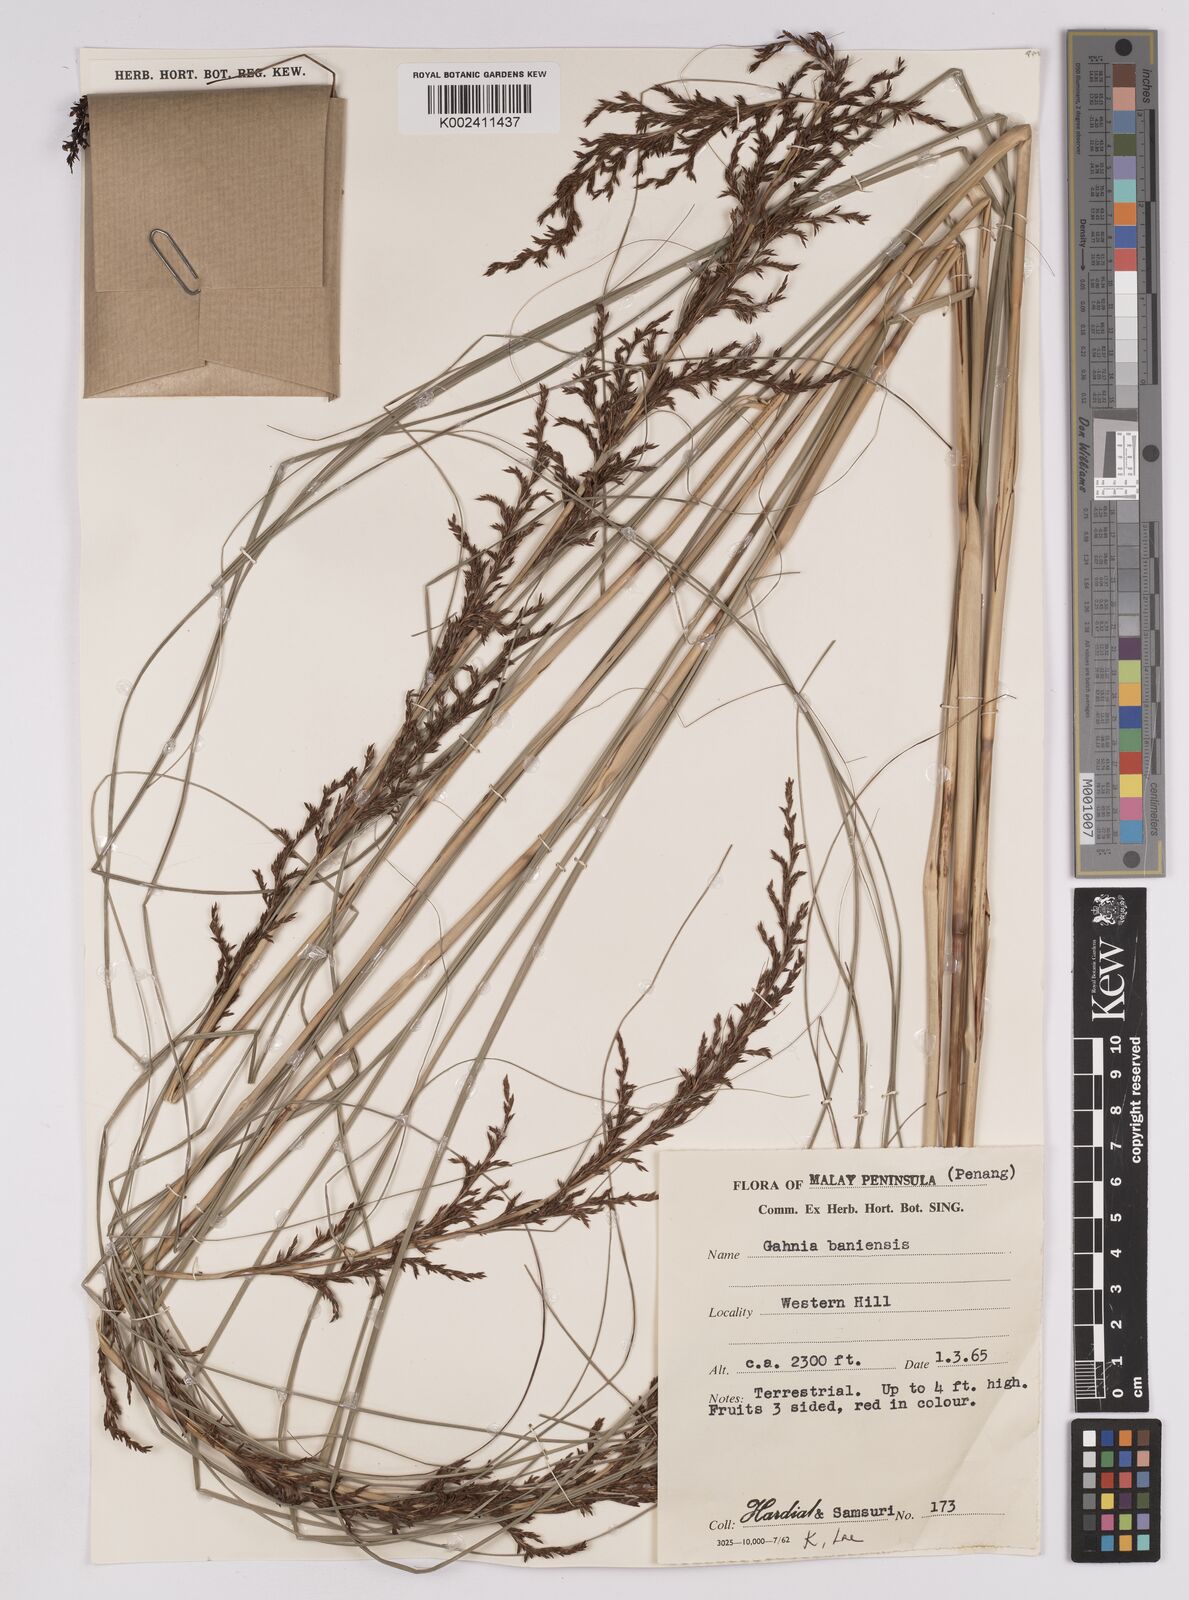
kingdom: Plantae
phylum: Tracheophyta
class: Liliopsida
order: Poales
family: Cyperaceae
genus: Gahnia
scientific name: Gahnia baniensis
